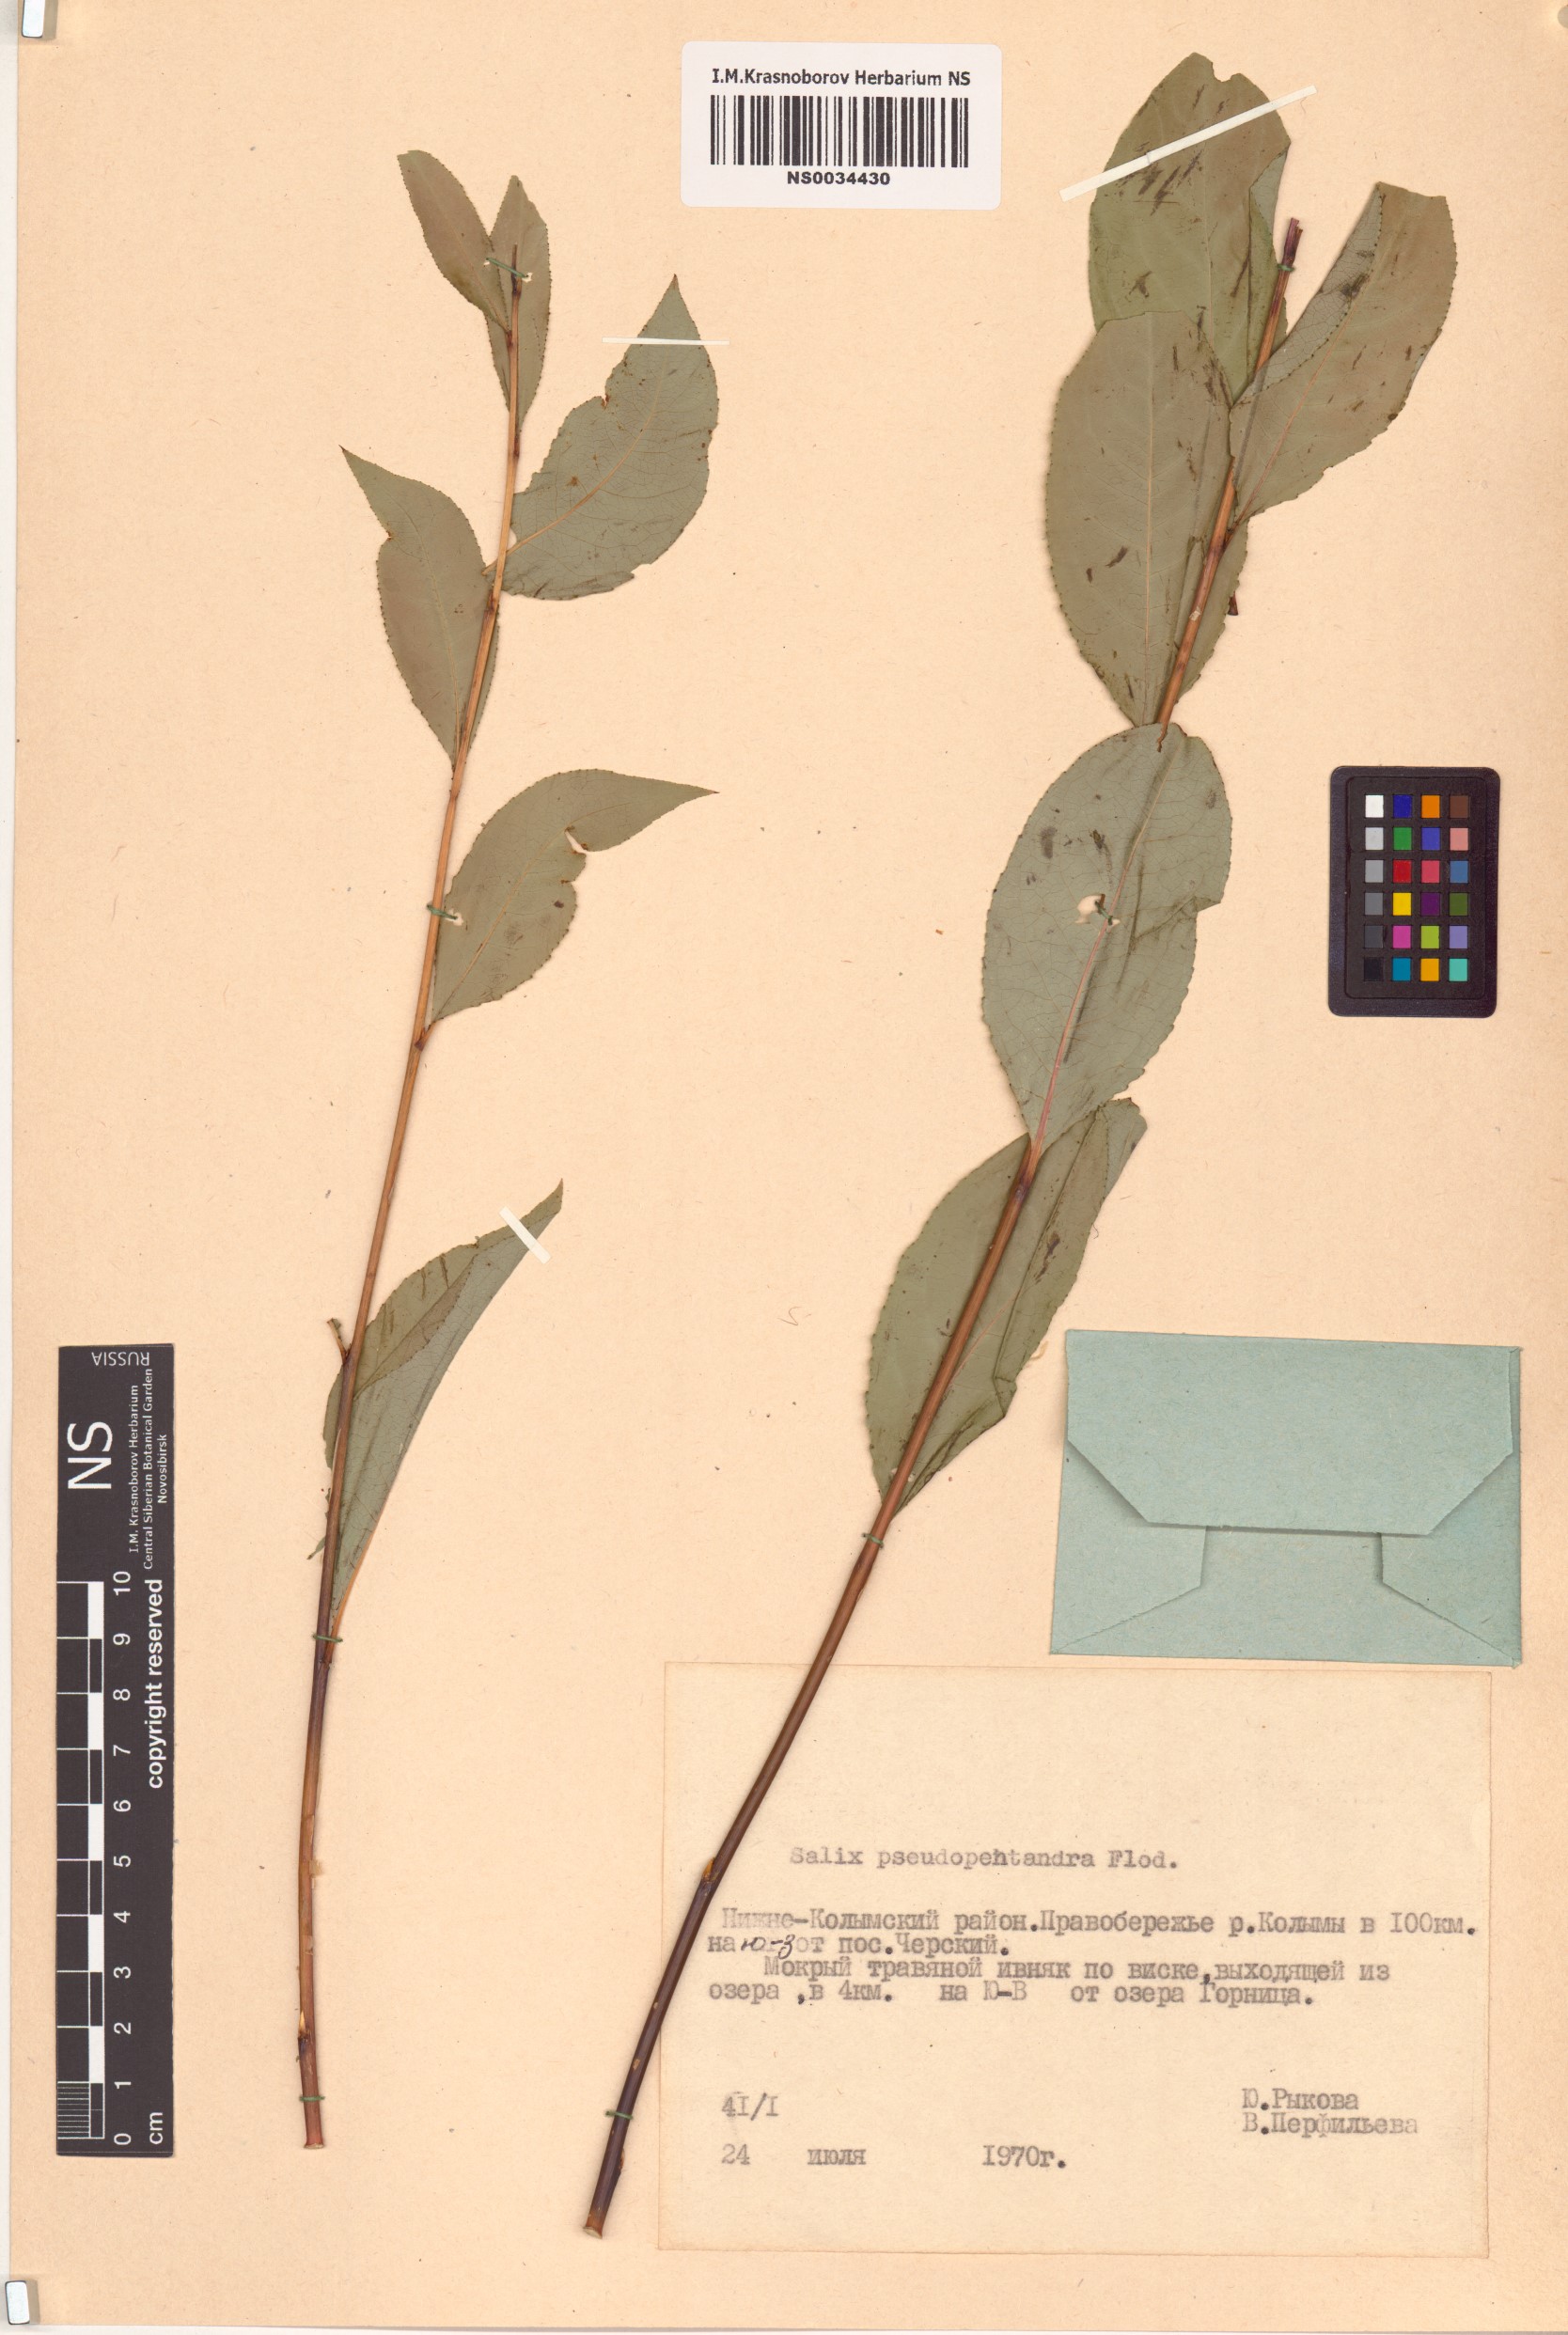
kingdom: Plantae
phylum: Tracheophyta
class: Magnoliopsida
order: Malpighiales
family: Salicaceae
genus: Salix
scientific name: Salix pseudopentandra
